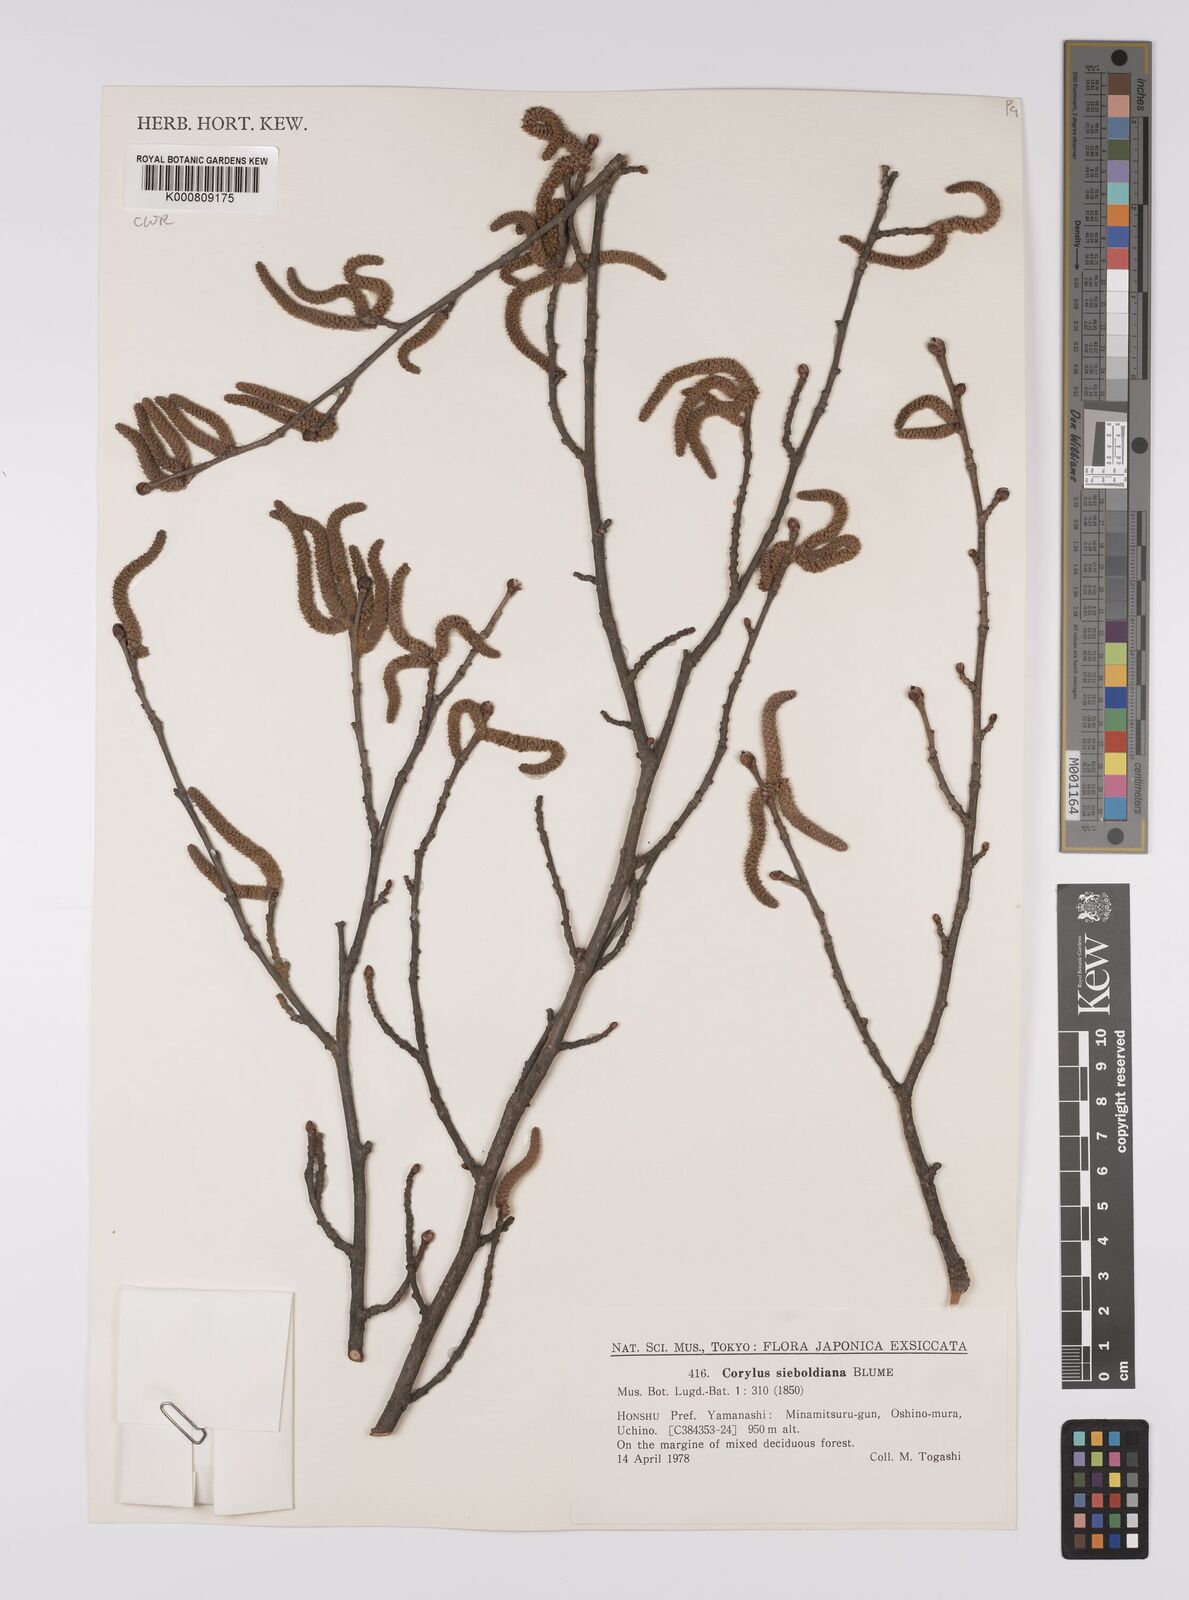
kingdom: Plantae
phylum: Tracheophyta
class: Magnoliopsida
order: Fagales
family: Betulaceae
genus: Corylus
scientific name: Corylus
